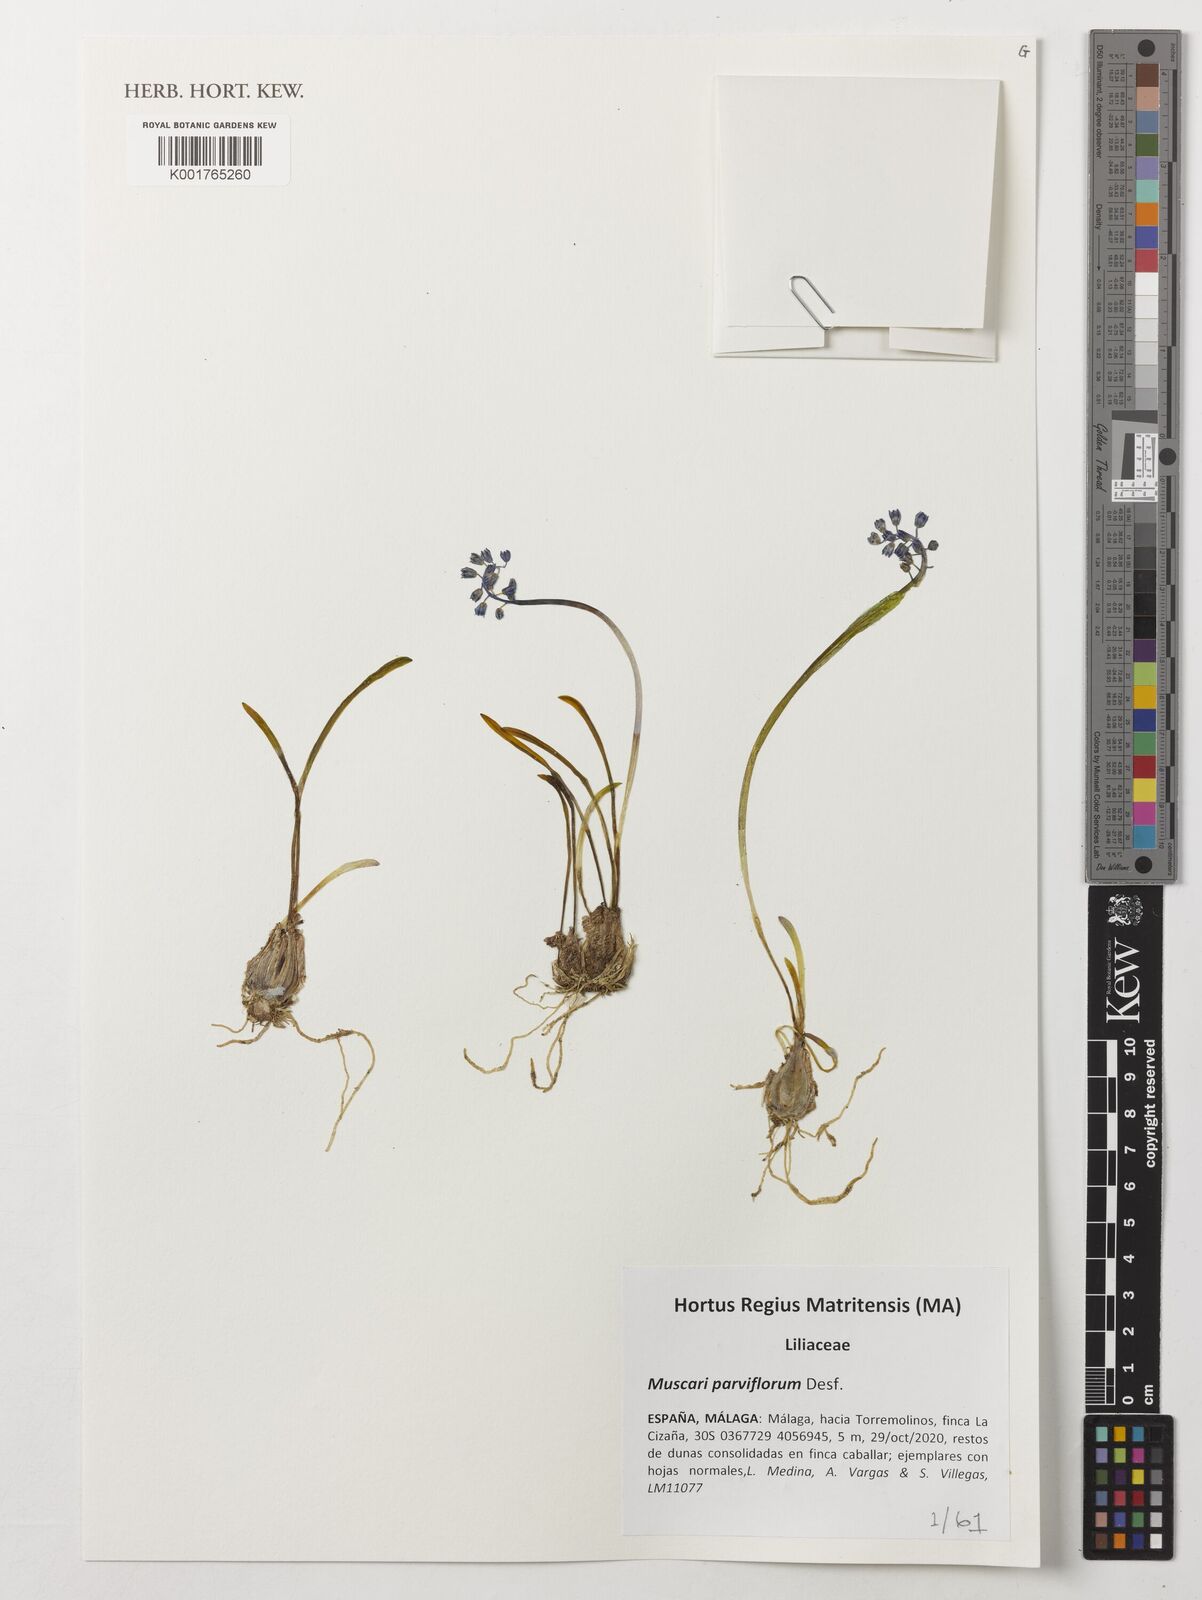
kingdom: Plantae
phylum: Tracheophyta
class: Liliopsida
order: Asparagales
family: Asparagaceae
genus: Muscari
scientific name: Muscari parviflorum
